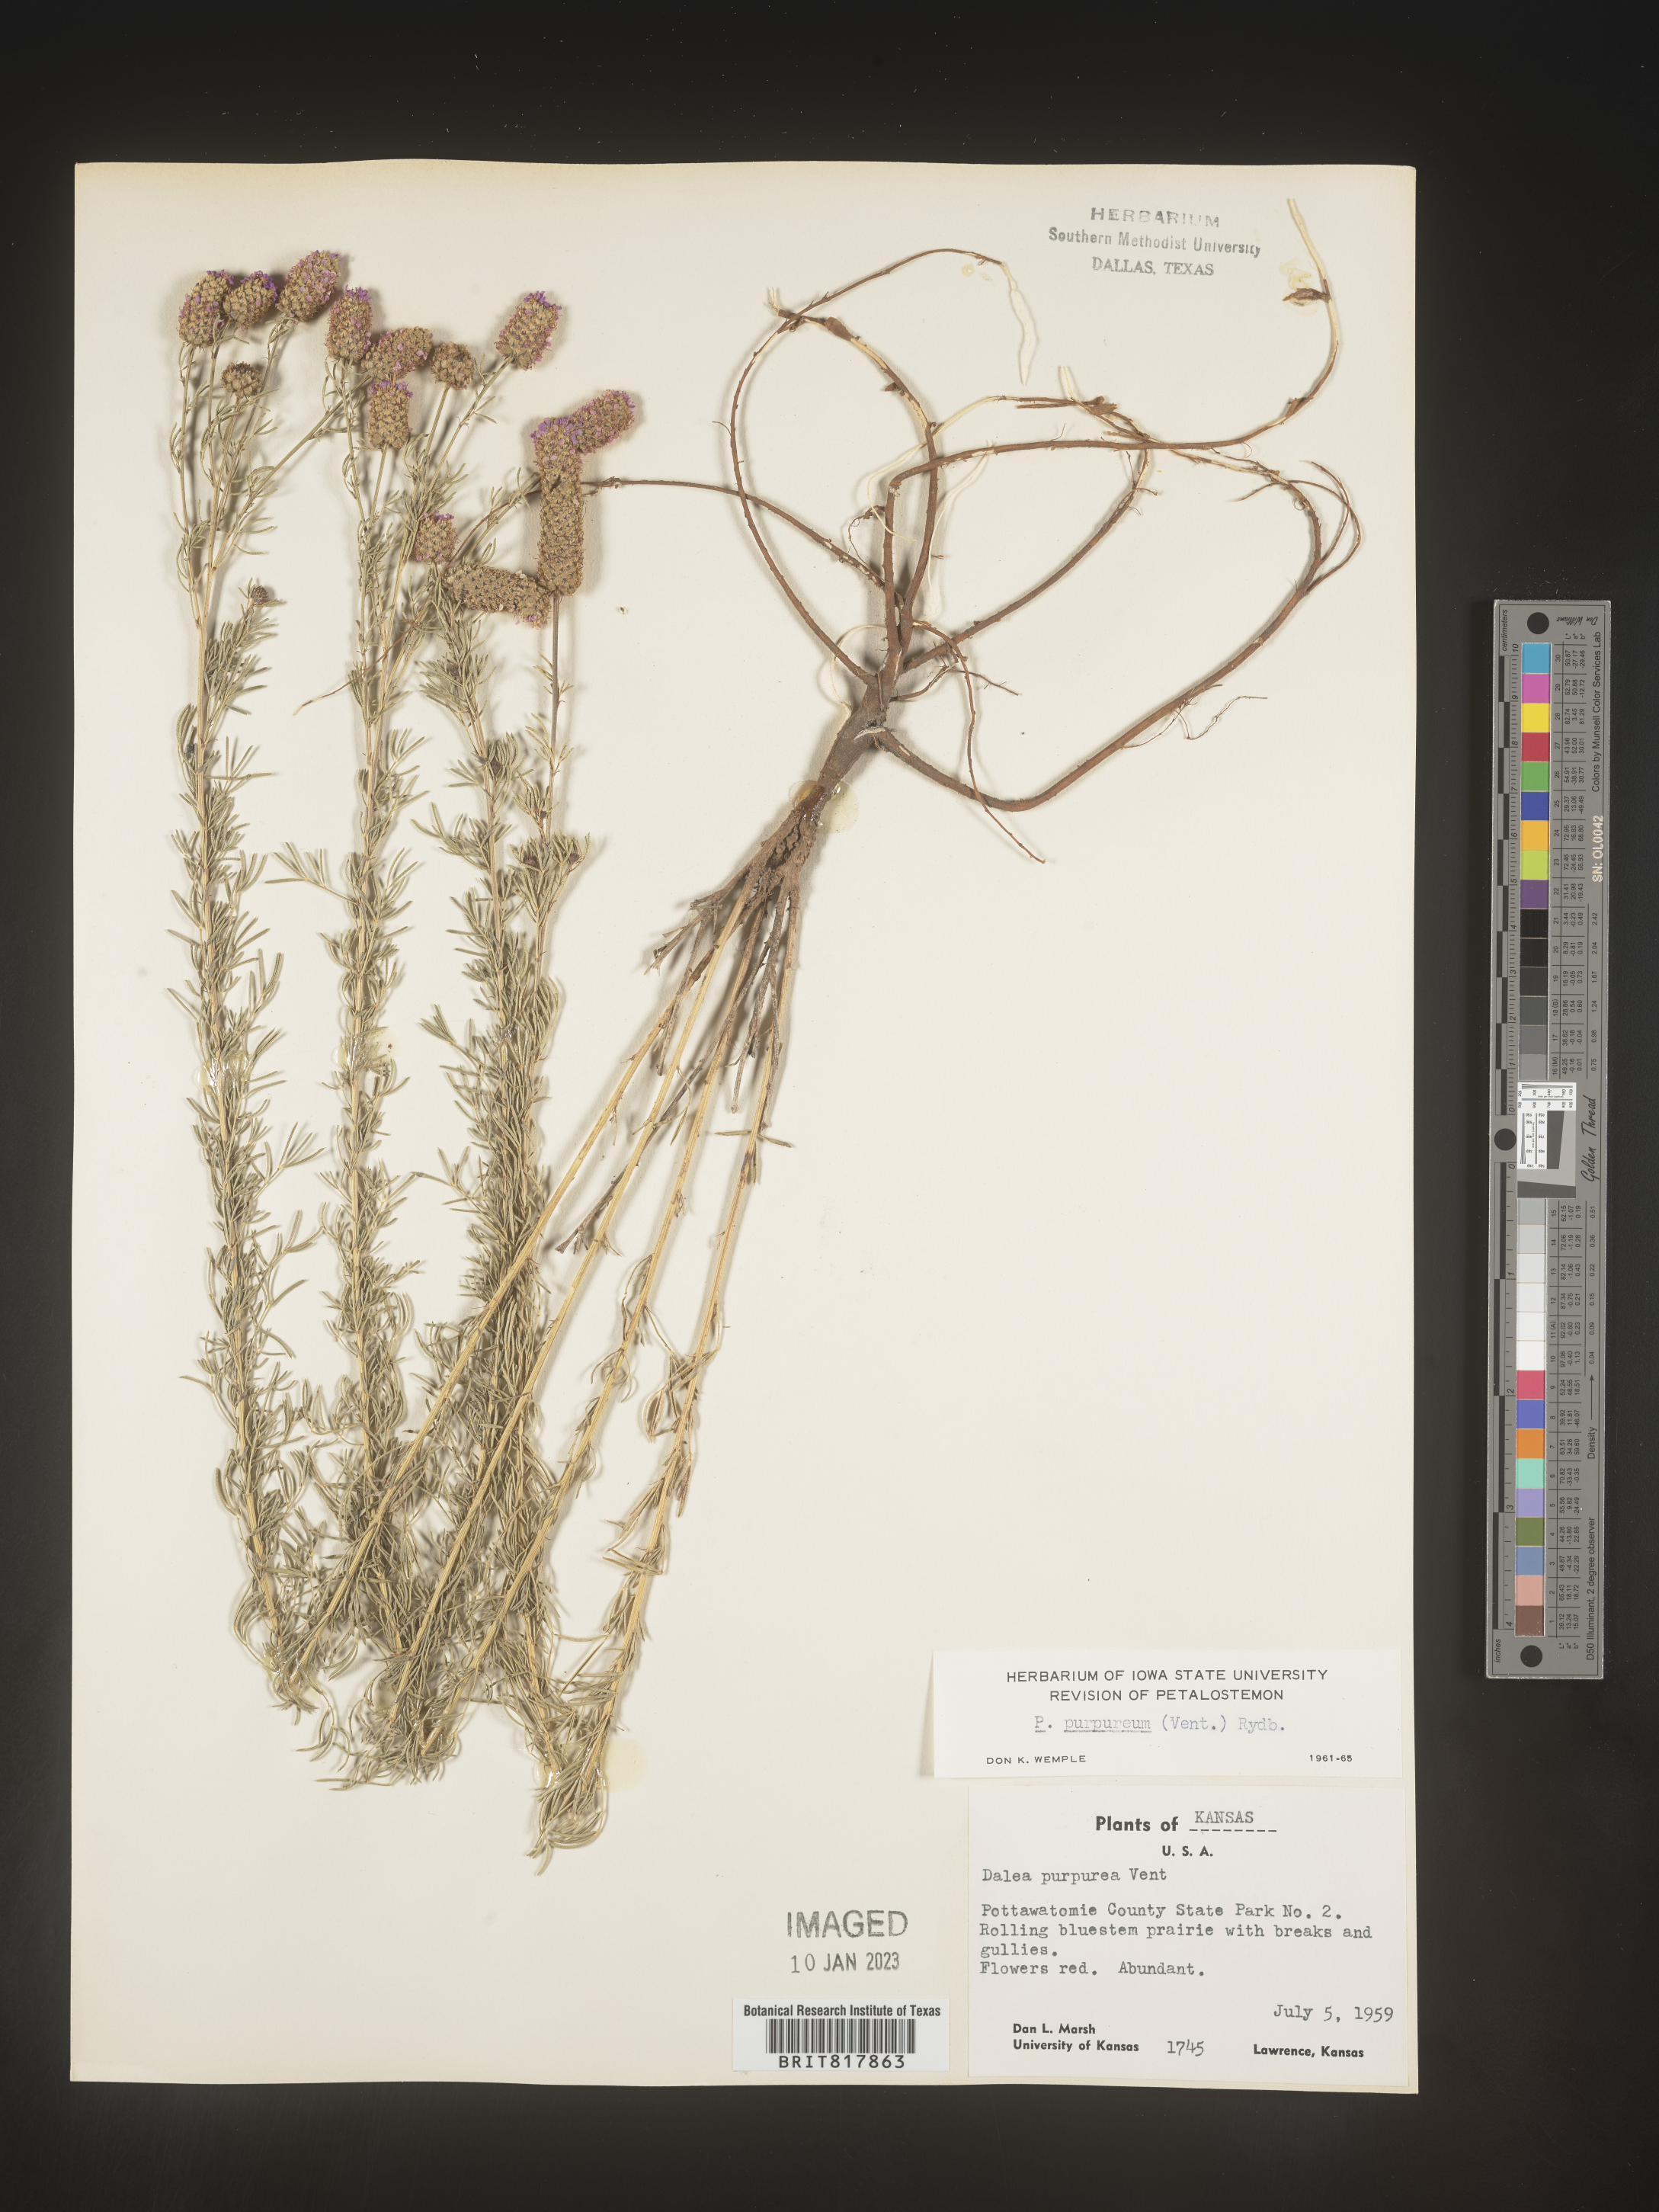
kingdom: Plantae
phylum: Tracheophyta
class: Magnoliopsida
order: Fabales
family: Fabaceae
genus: Dalea
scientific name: Dalea purpurea
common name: Purple prairie-clover
